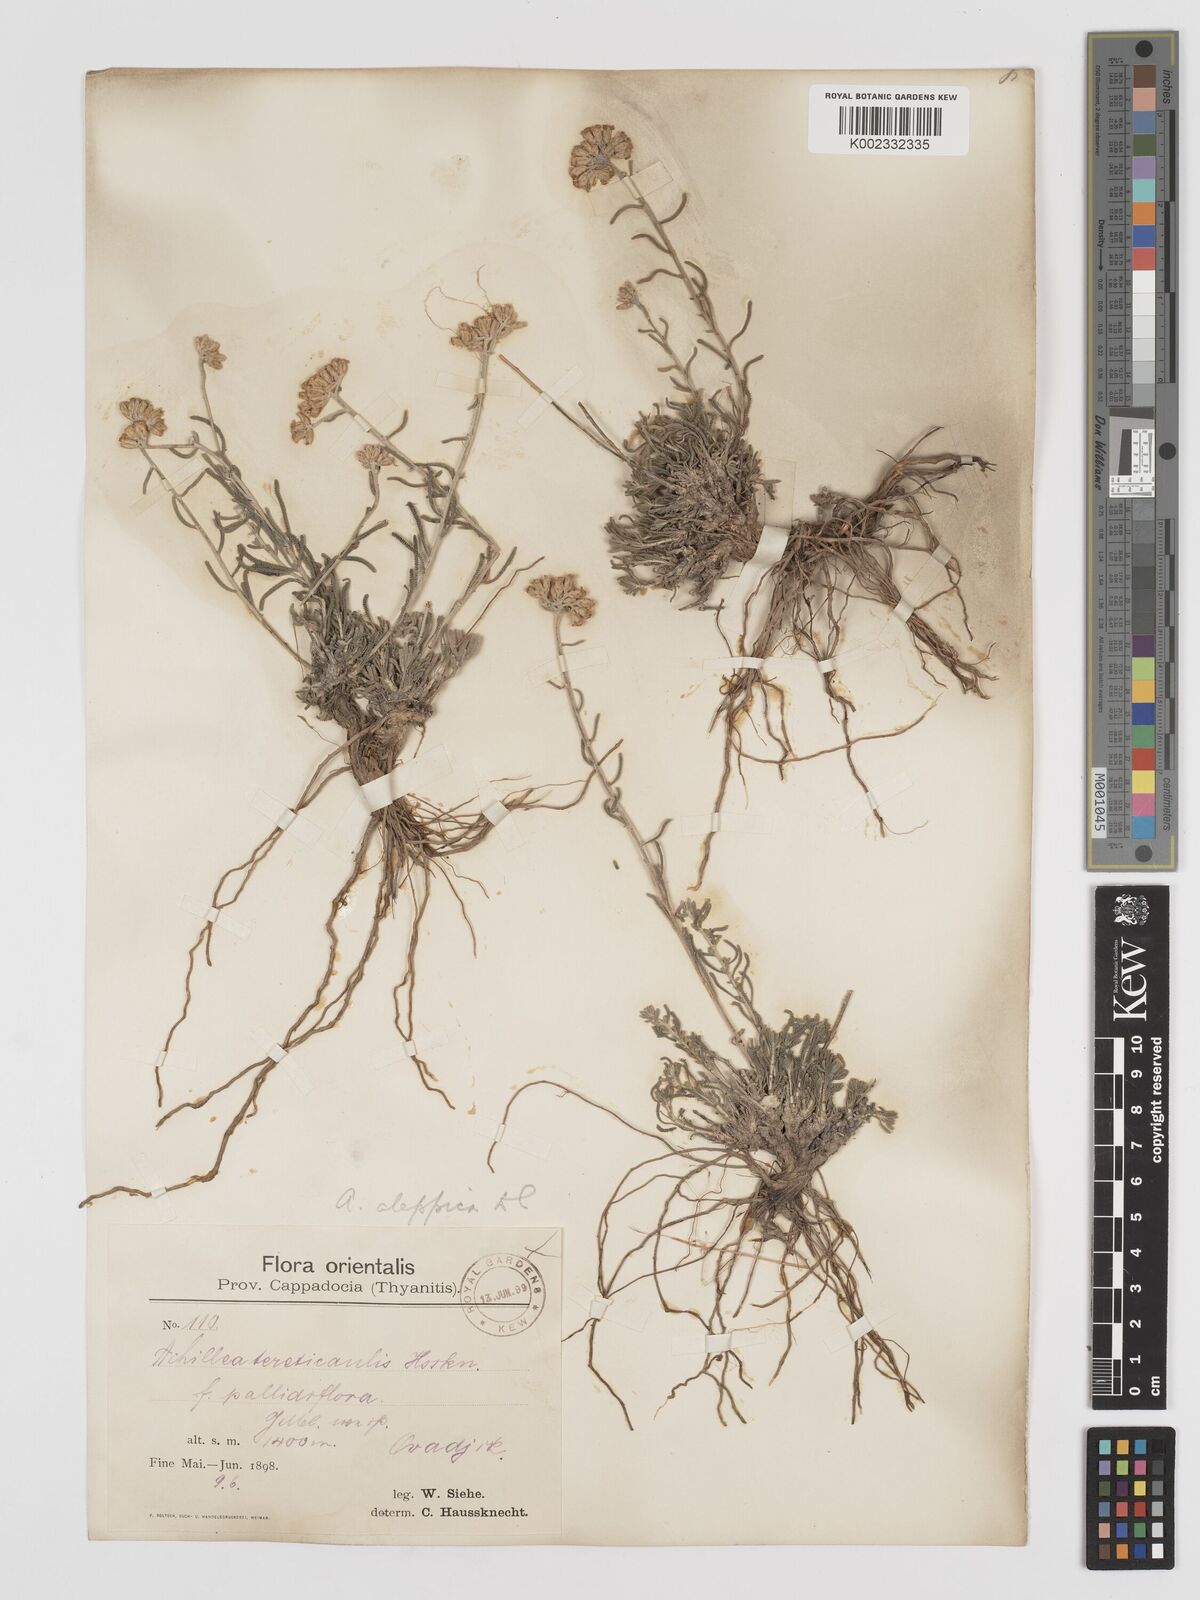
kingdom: Plantae
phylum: Tracheophyta
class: Magnoliopsida
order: Asterales
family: Asteraceae
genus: Achillea
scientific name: Achillea aleppica
